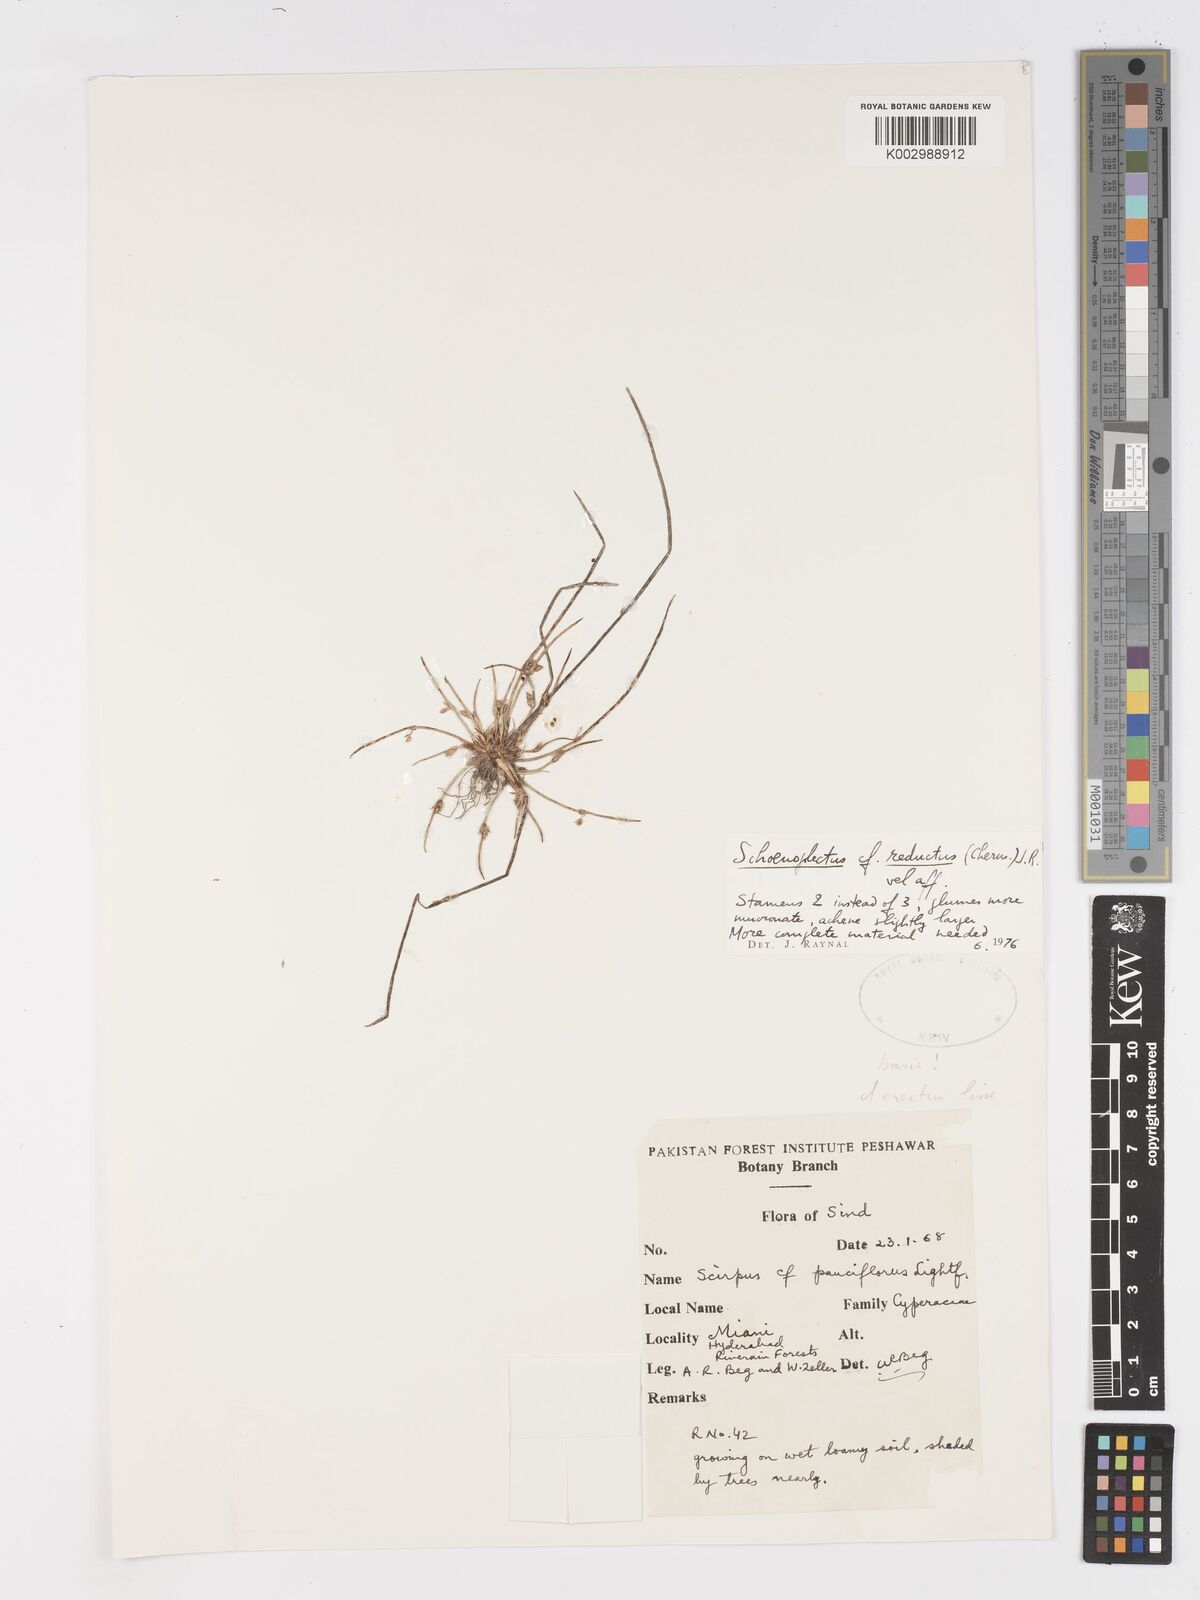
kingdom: Plantae
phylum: Tracheophyta
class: Liliopsida
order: Poales
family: Cyperaceae
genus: Schoenoplectiella
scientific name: Schoenoplectiella reducta
